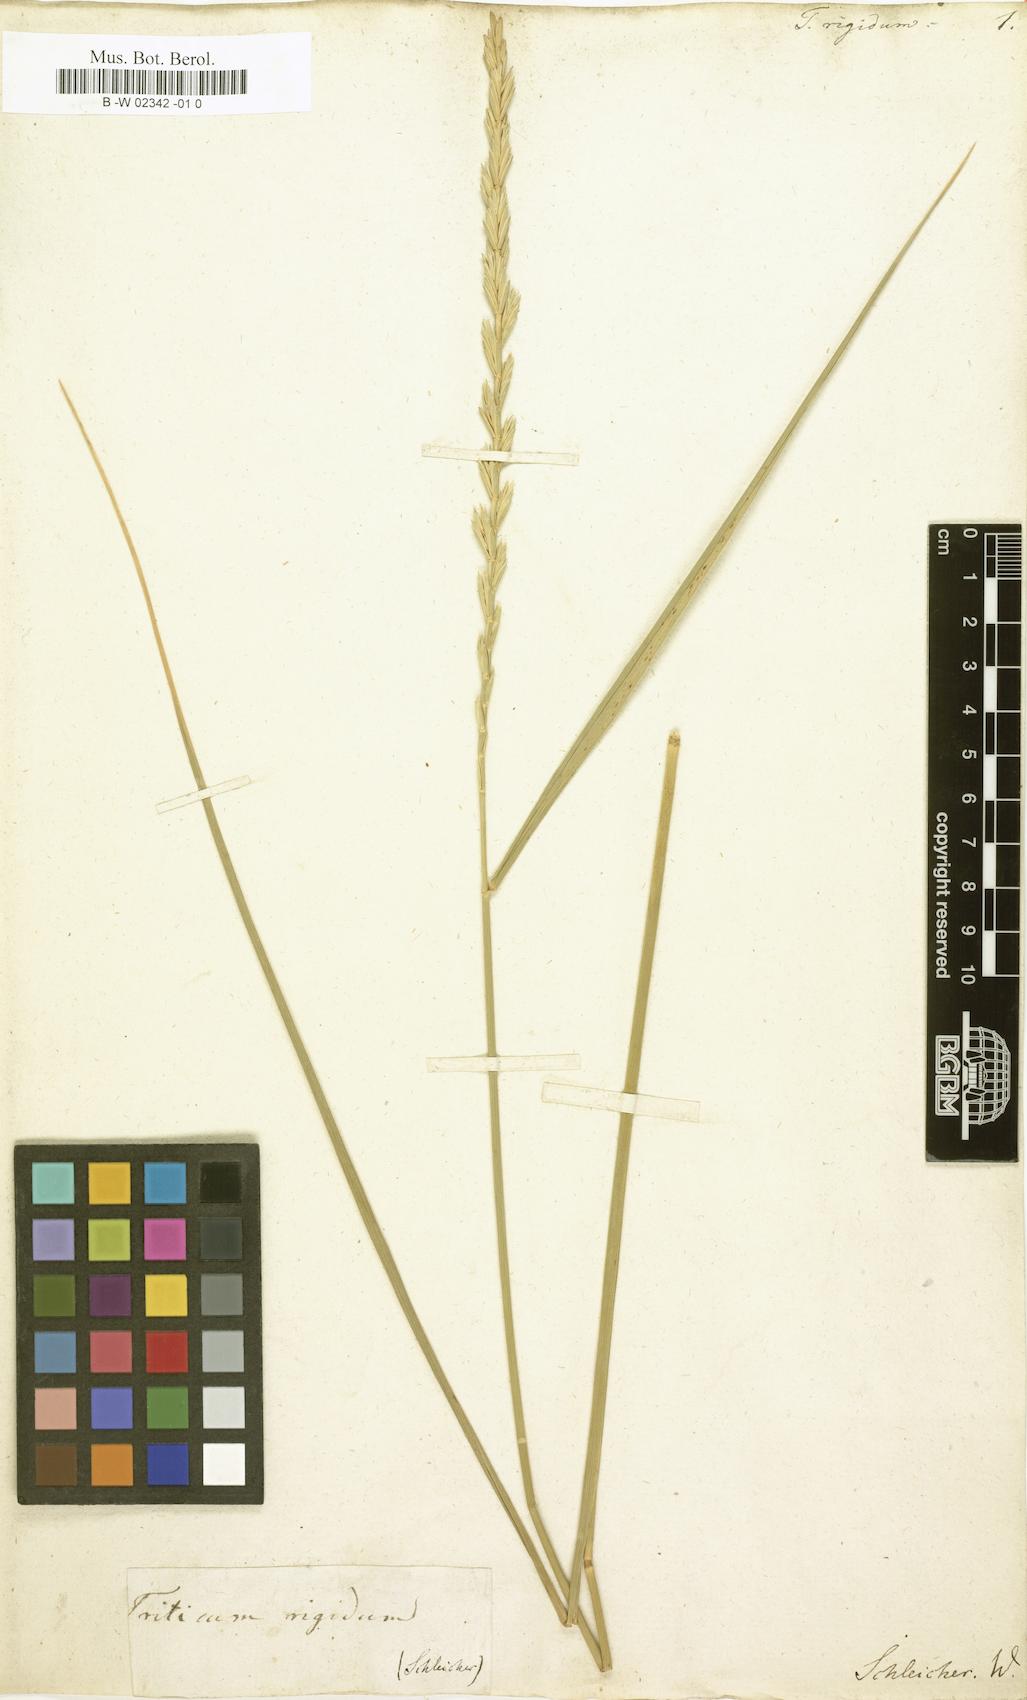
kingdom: Plantae
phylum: Tracheophyta
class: Liliopsida
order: Poales
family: Poaceae
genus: Thinopyrum
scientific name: Thinopyrum
